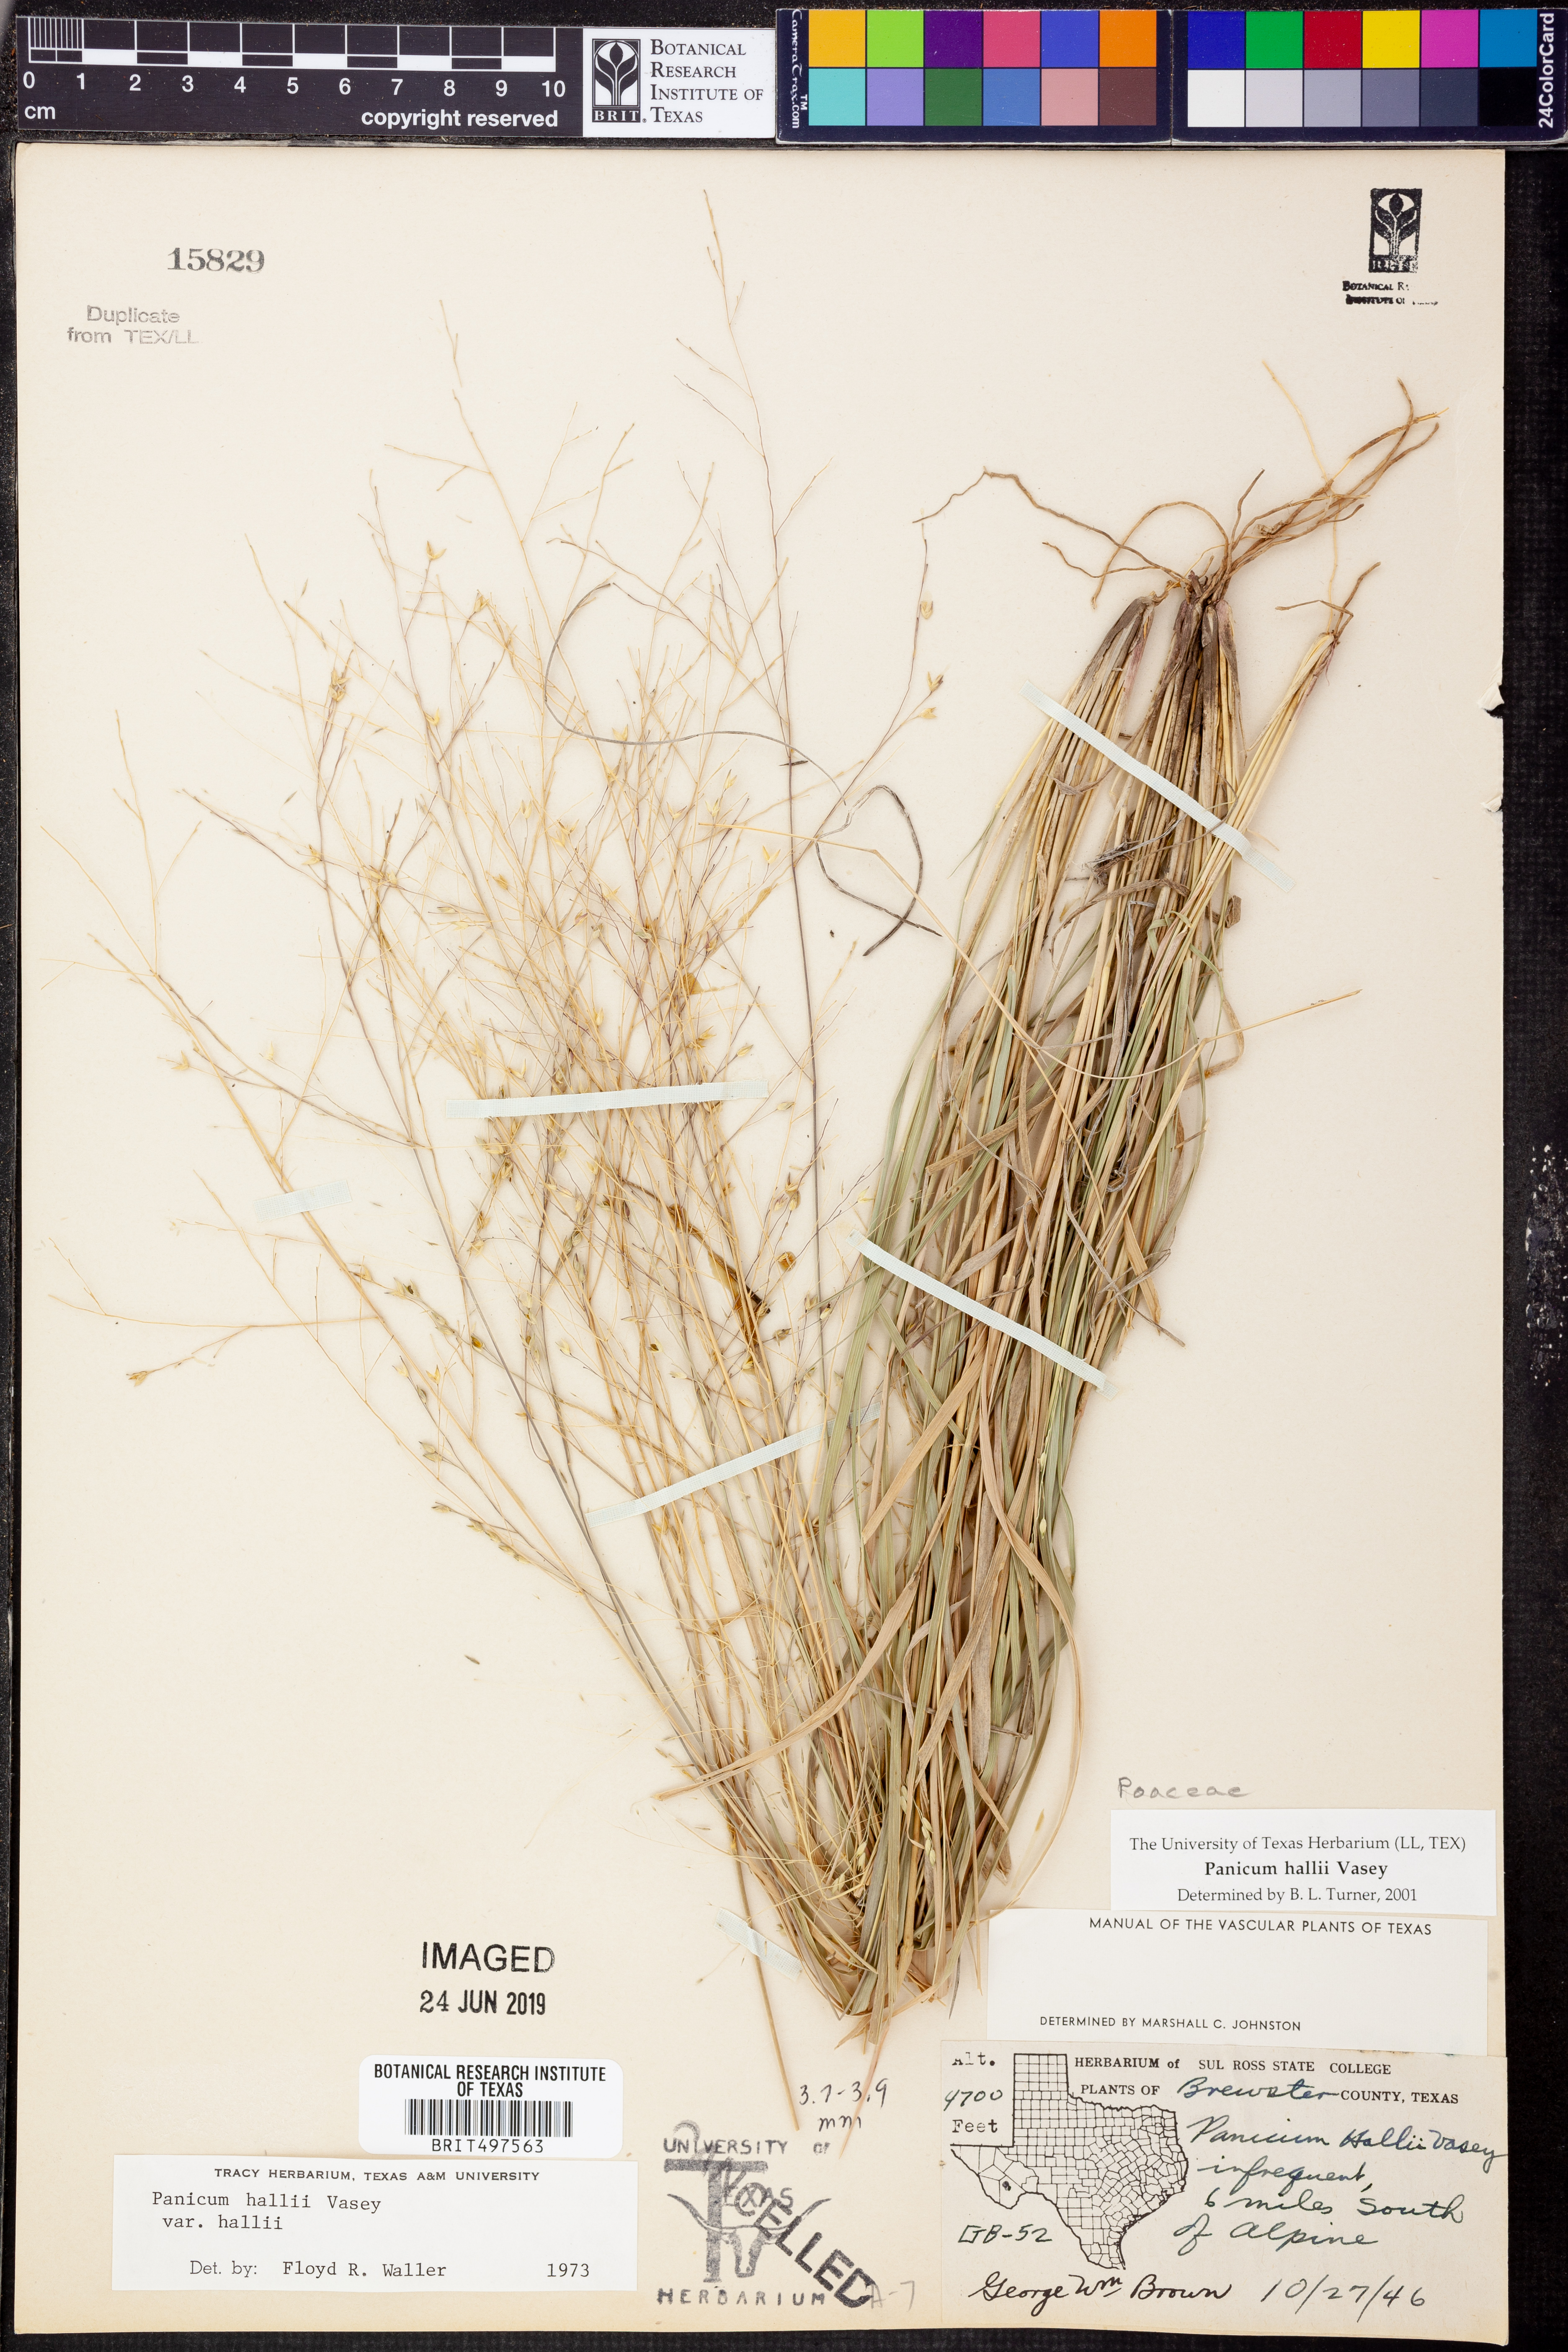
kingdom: Plantae
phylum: Tracheophyta
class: Liliopsida
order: Poales
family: Poaceae
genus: Panicum
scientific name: Panicum hallii
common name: Hall's witchgrass
